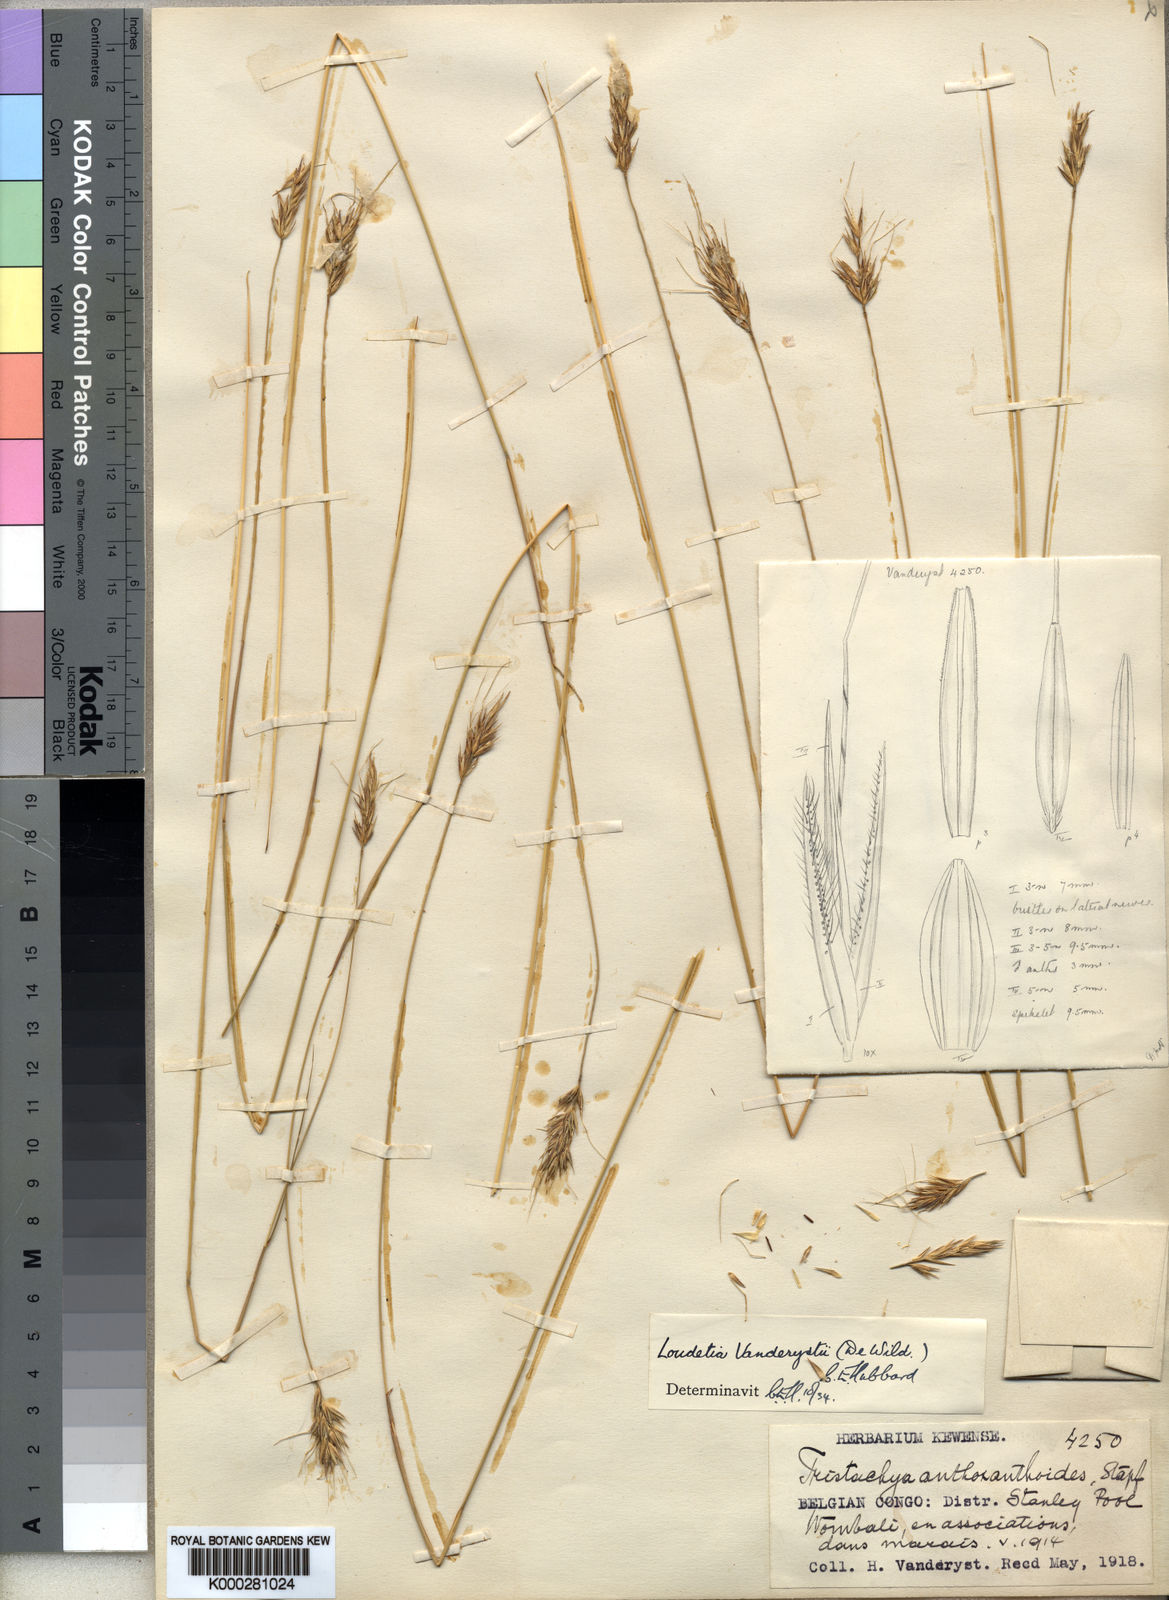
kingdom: Plantae
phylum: Tracheophyta
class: Liliopsida
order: Poales
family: Poaceae
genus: Loudetia
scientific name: Loudetia vanderystii
